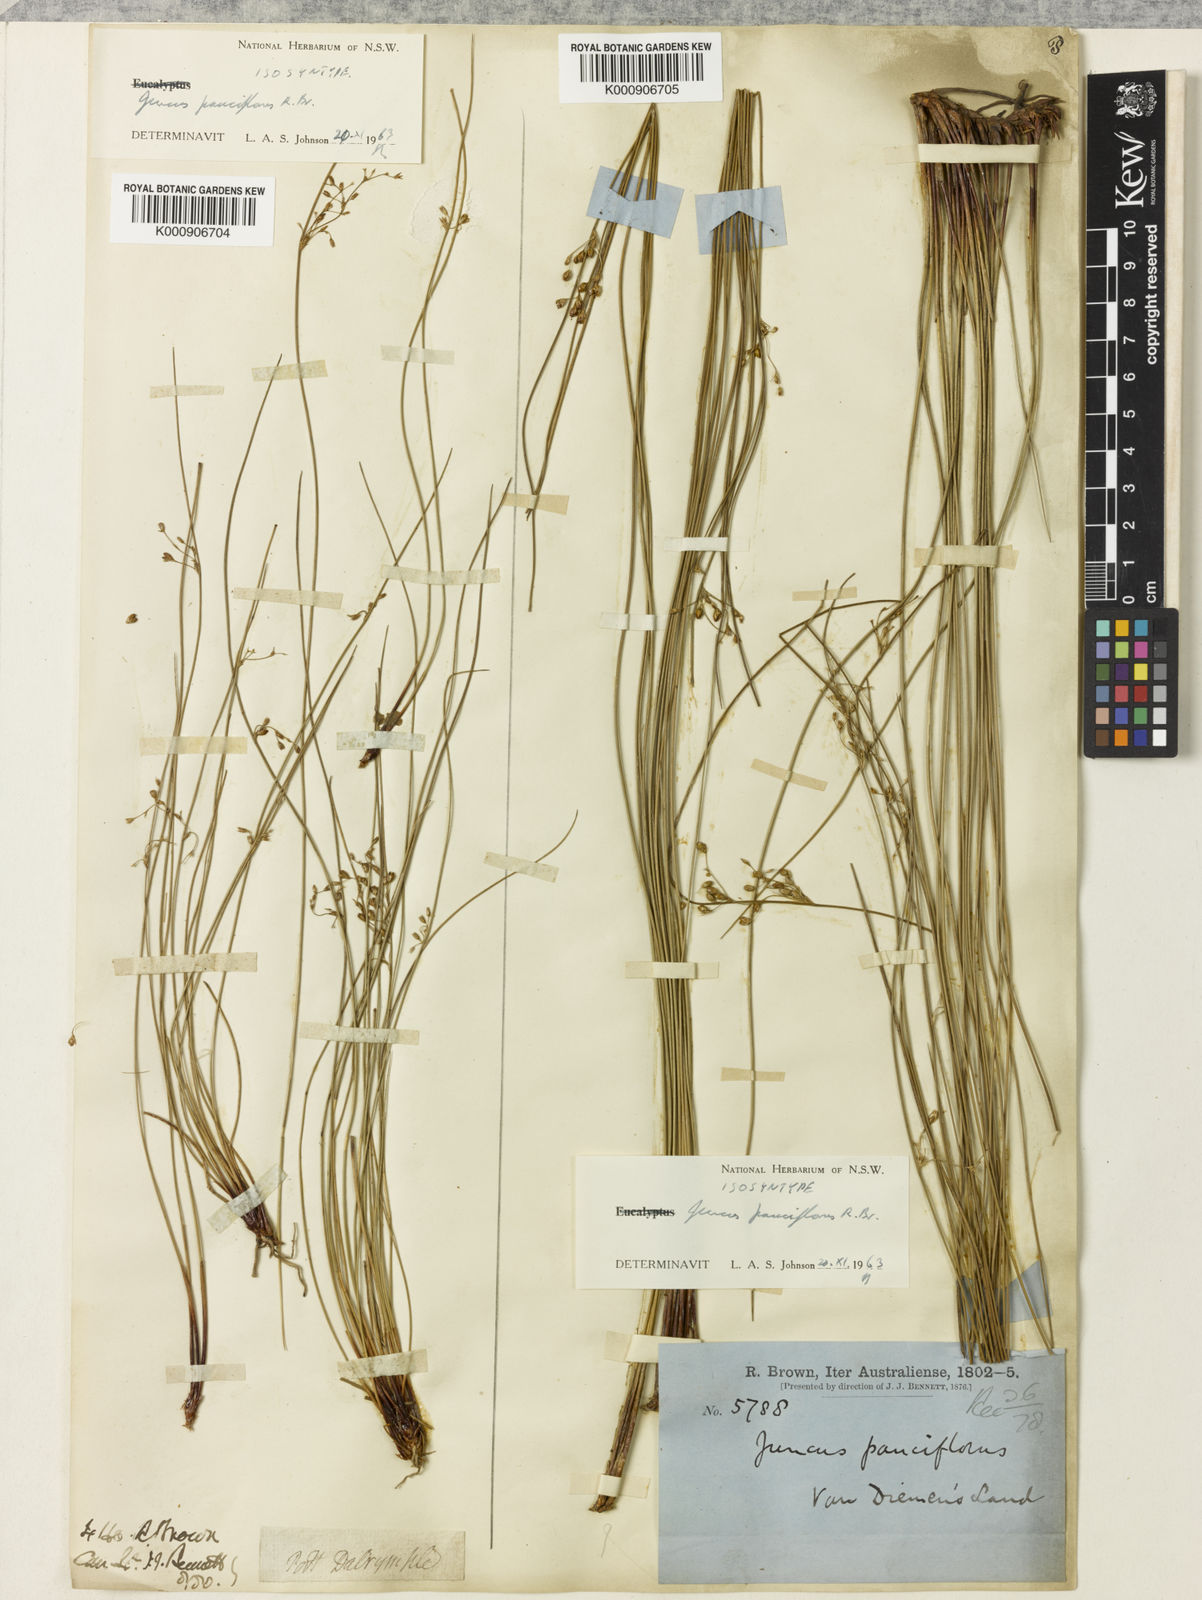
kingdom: Plantae
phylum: Tracheophyta
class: Liliopsida
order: Poales
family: Juncaceae
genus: Juncus
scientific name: Juncus pauciflorus
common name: Loose-flowered rush
